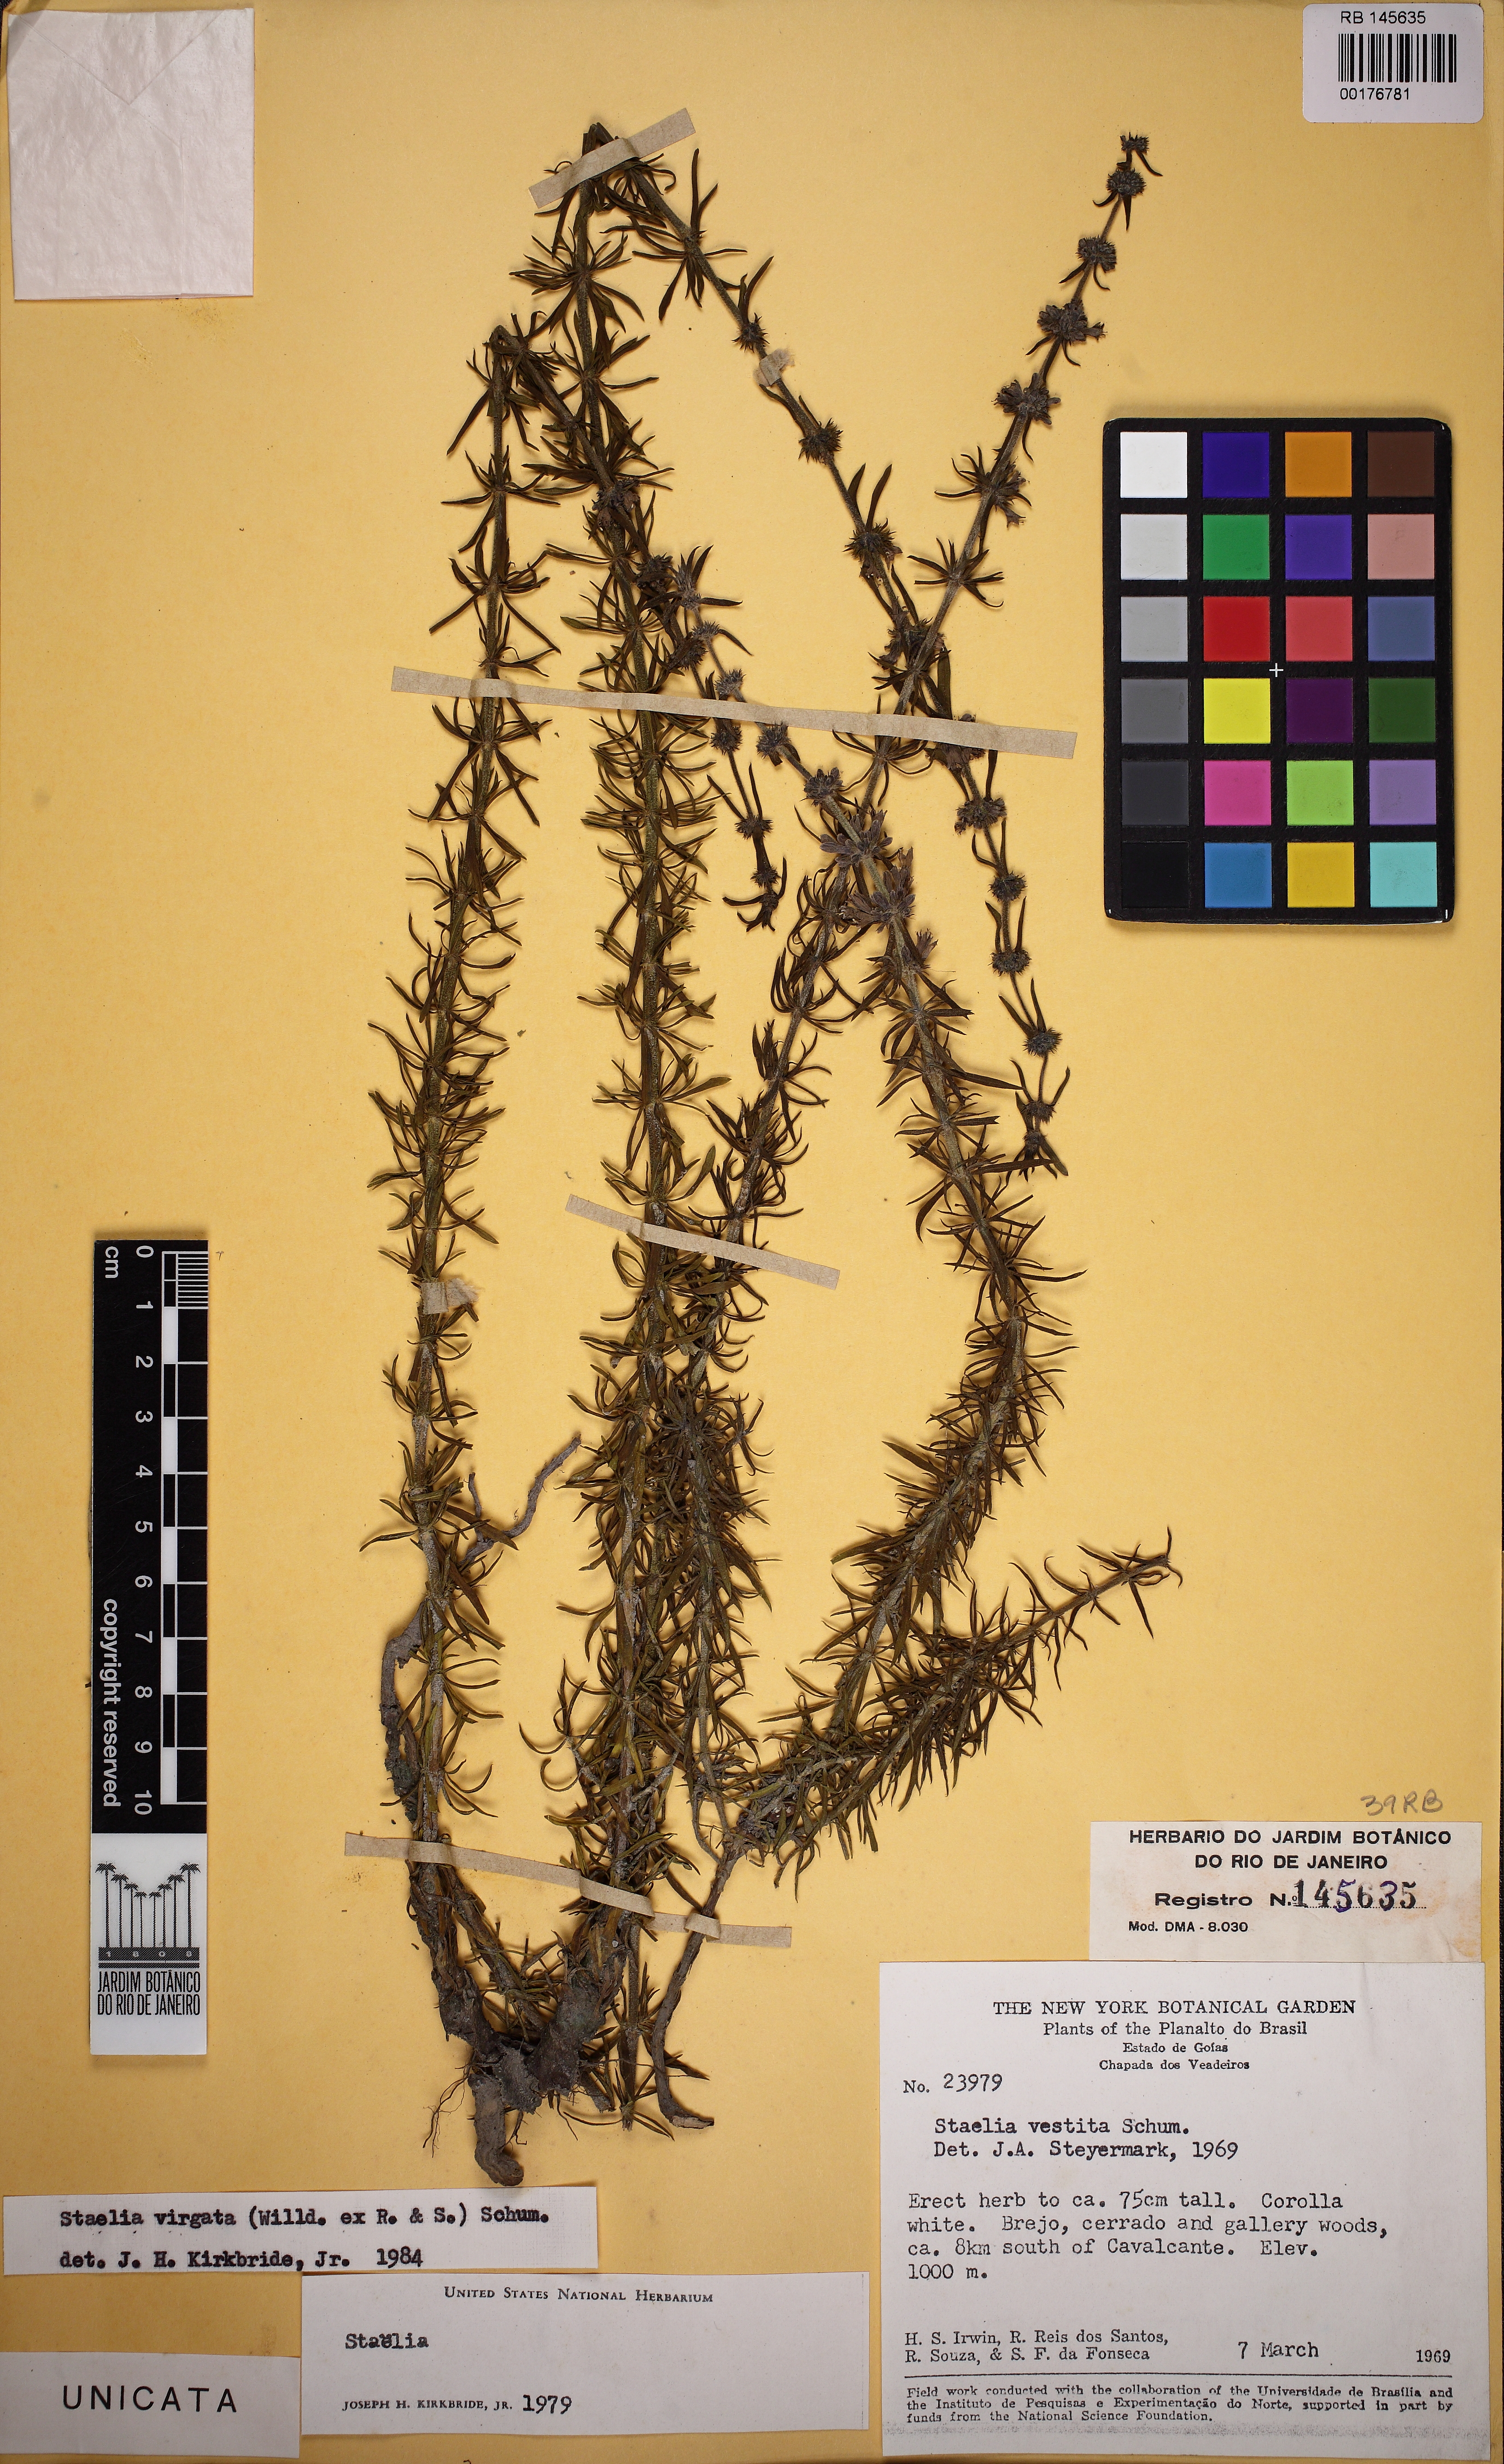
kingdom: Plantae
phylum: Tracheophyta
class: Magnoliopsida
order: Gentianales
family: Rubiaceae
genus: Staelia
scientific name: Staelia virgata
